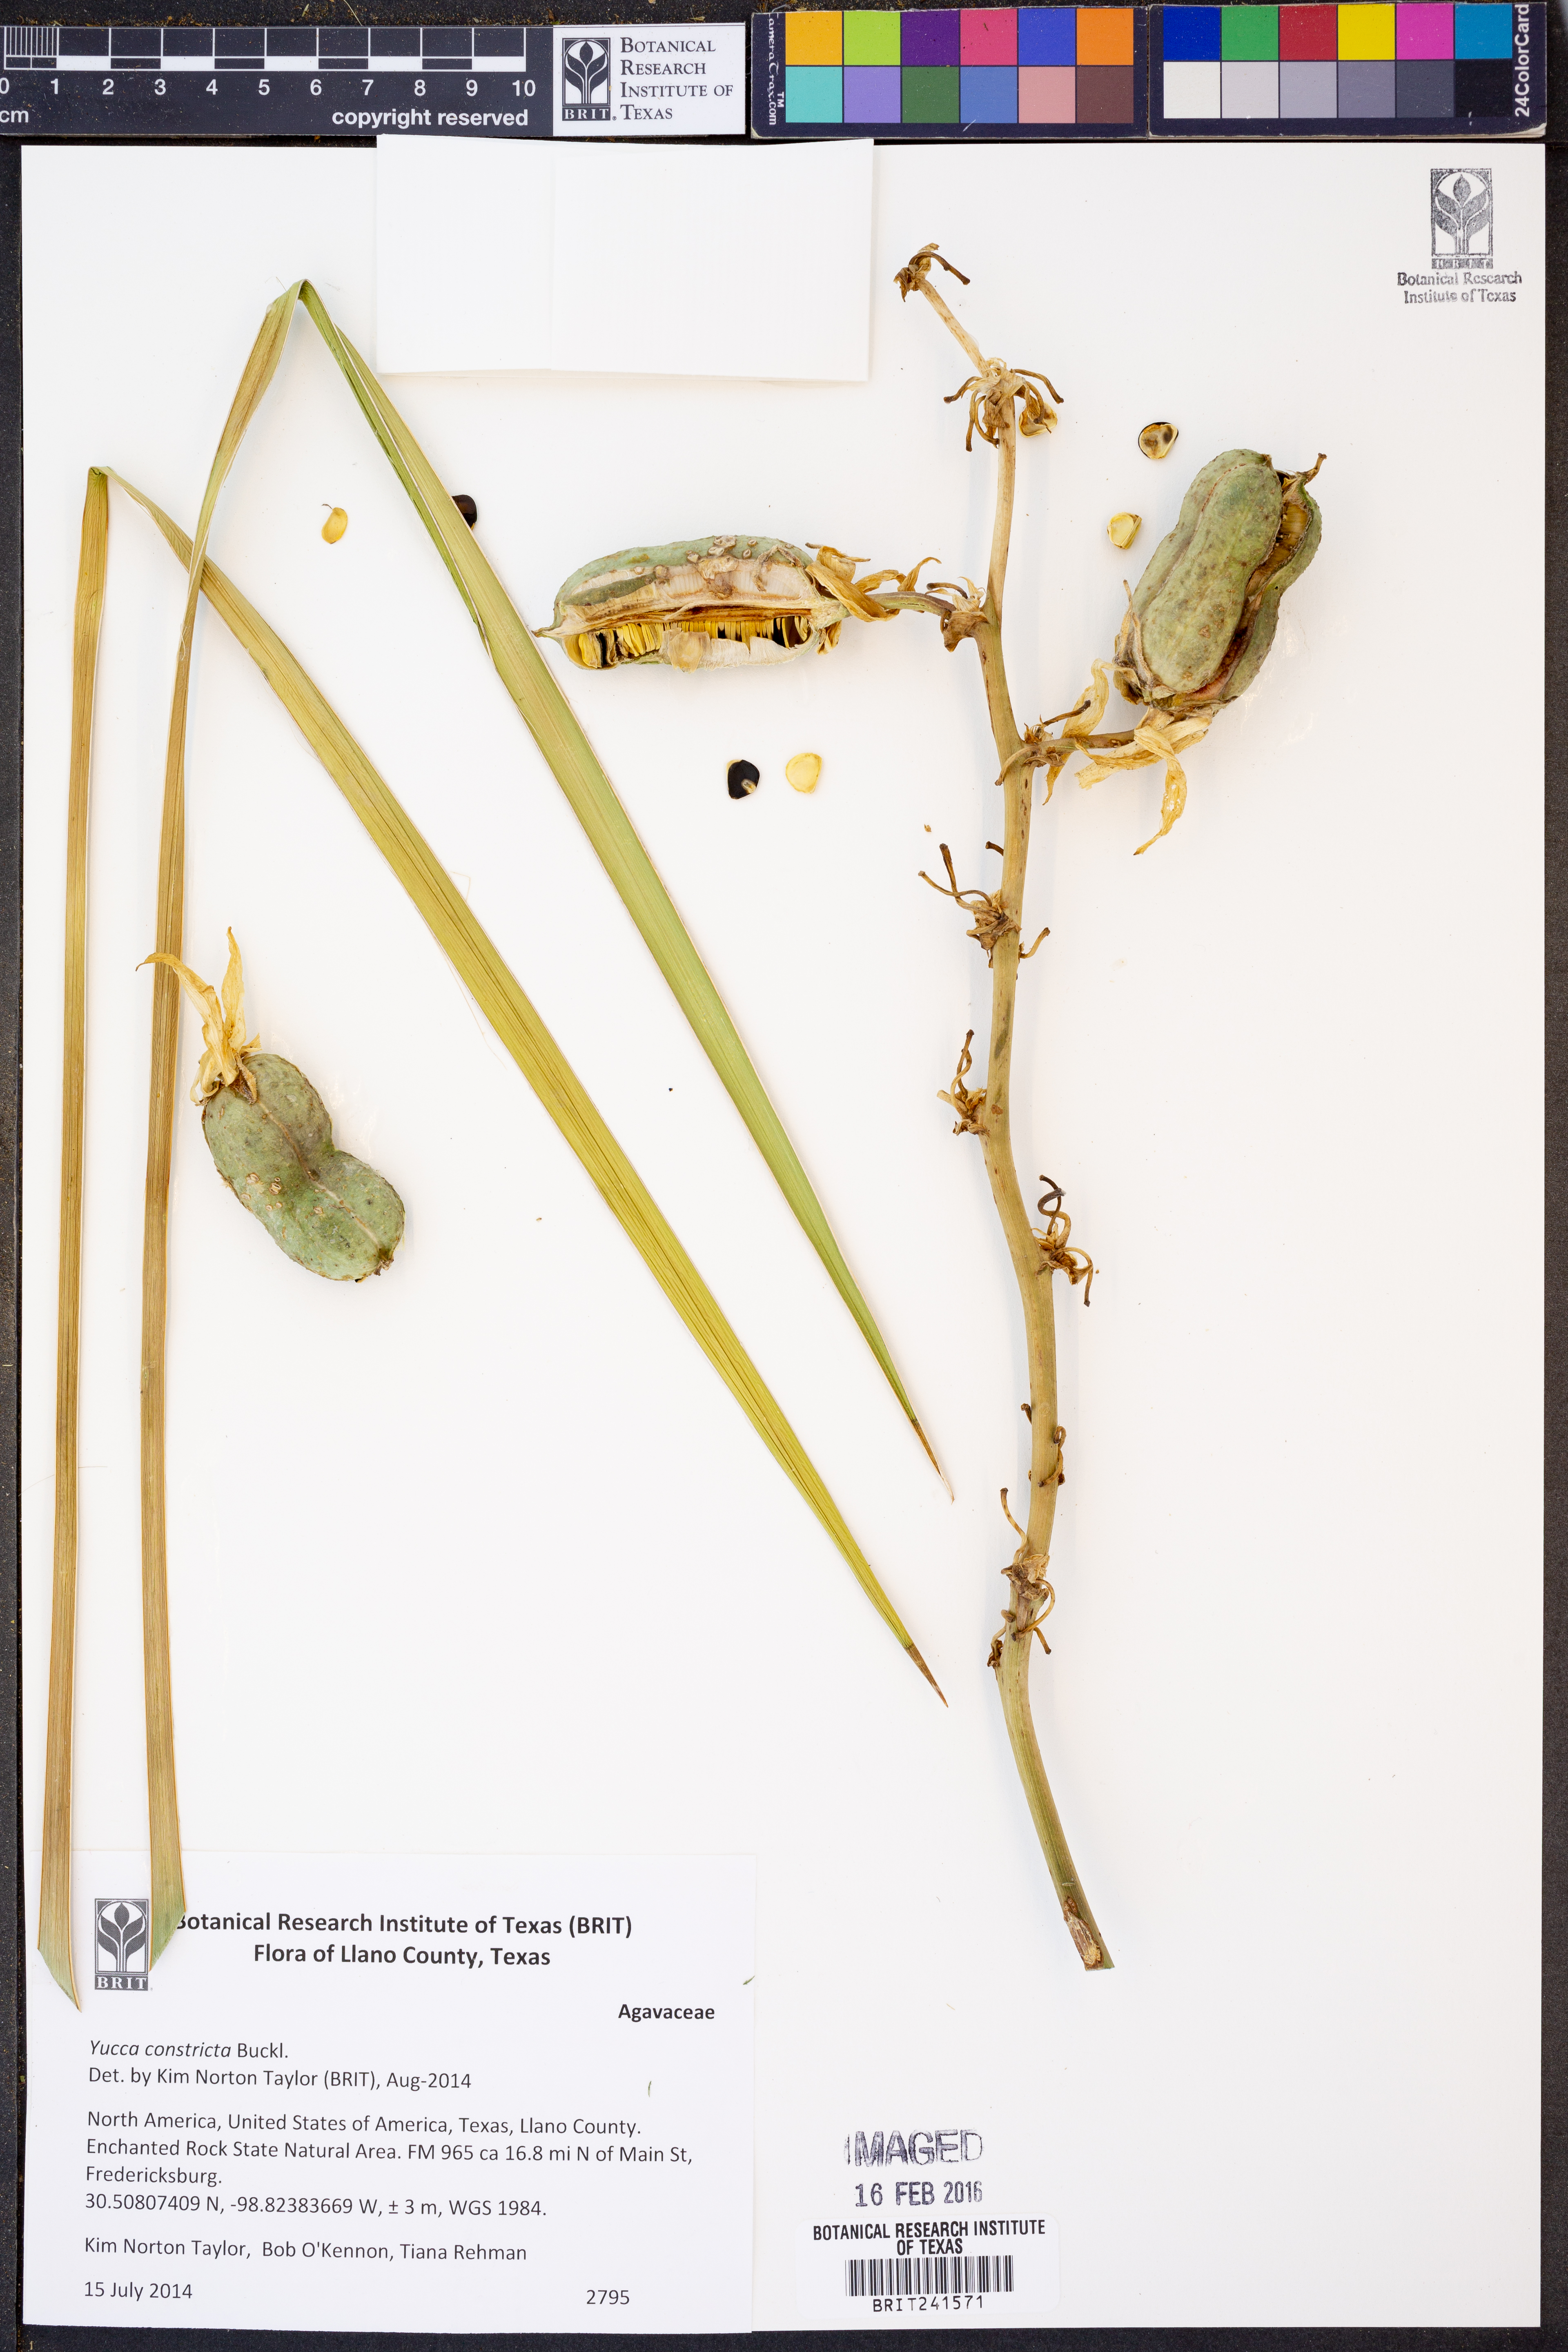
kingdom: Plantae
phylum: Tracheophyta
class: Liliopsida
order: Asparagales
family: Asparagaceae
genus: Yucca
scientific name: Yucca constricta
